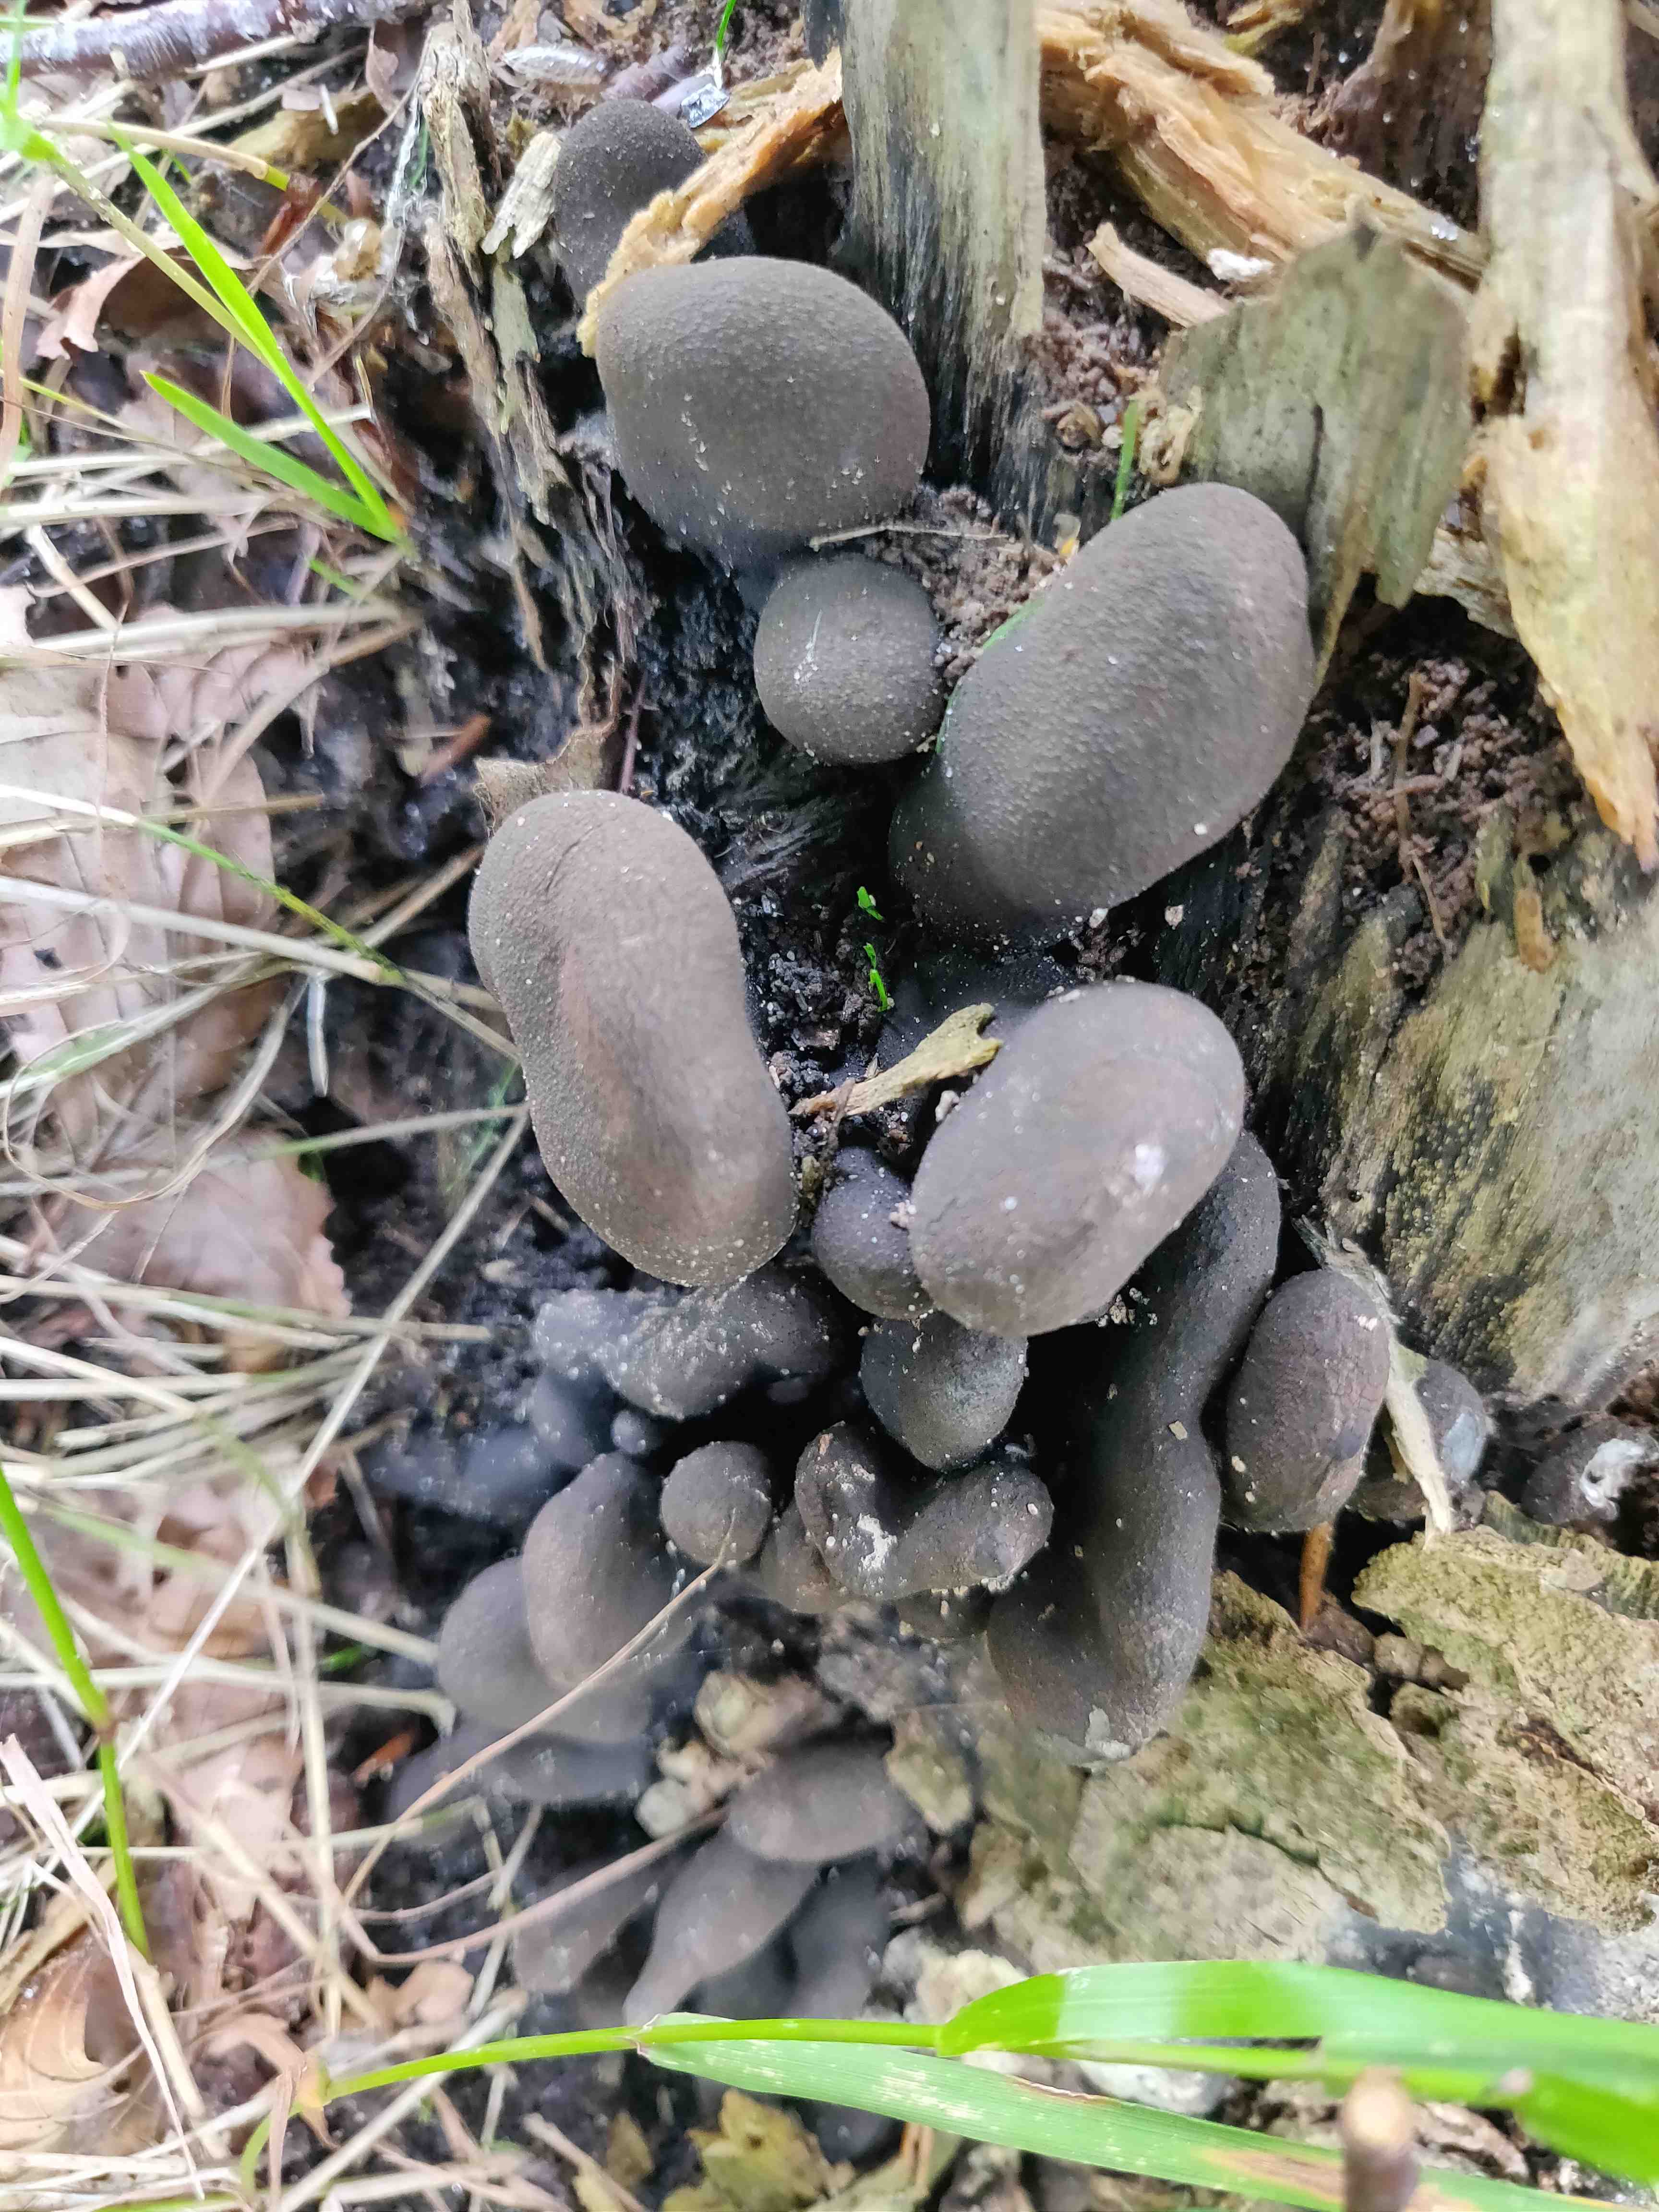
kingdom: Fungi
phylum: Ascomycota
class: Sordariomycetes
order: Xylariales
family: Xylariaceae
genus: Xylaria
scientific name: Xylaria polymorpha
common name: kølle-stødsvamp
